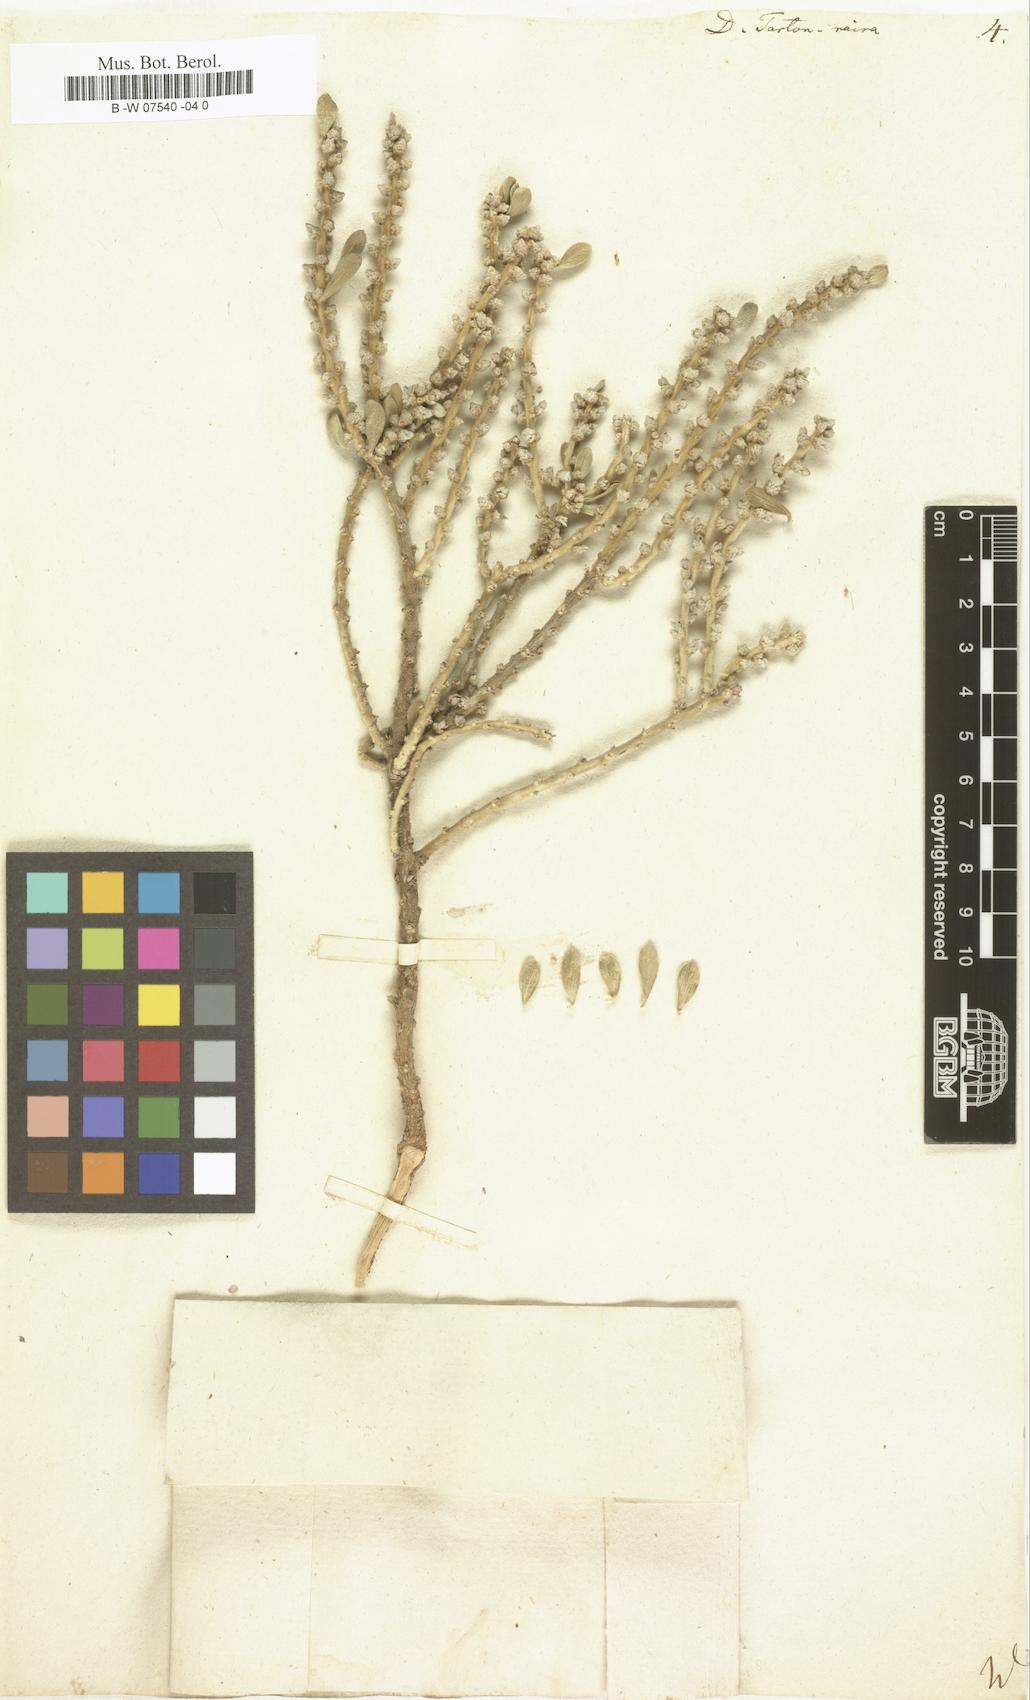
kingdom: Plantae
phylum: Tracheophyta
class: Magnoliopsida
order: Malvales
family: Thymelaeaceae
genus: Thymelaea
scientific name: Thymelaea tartonraira
